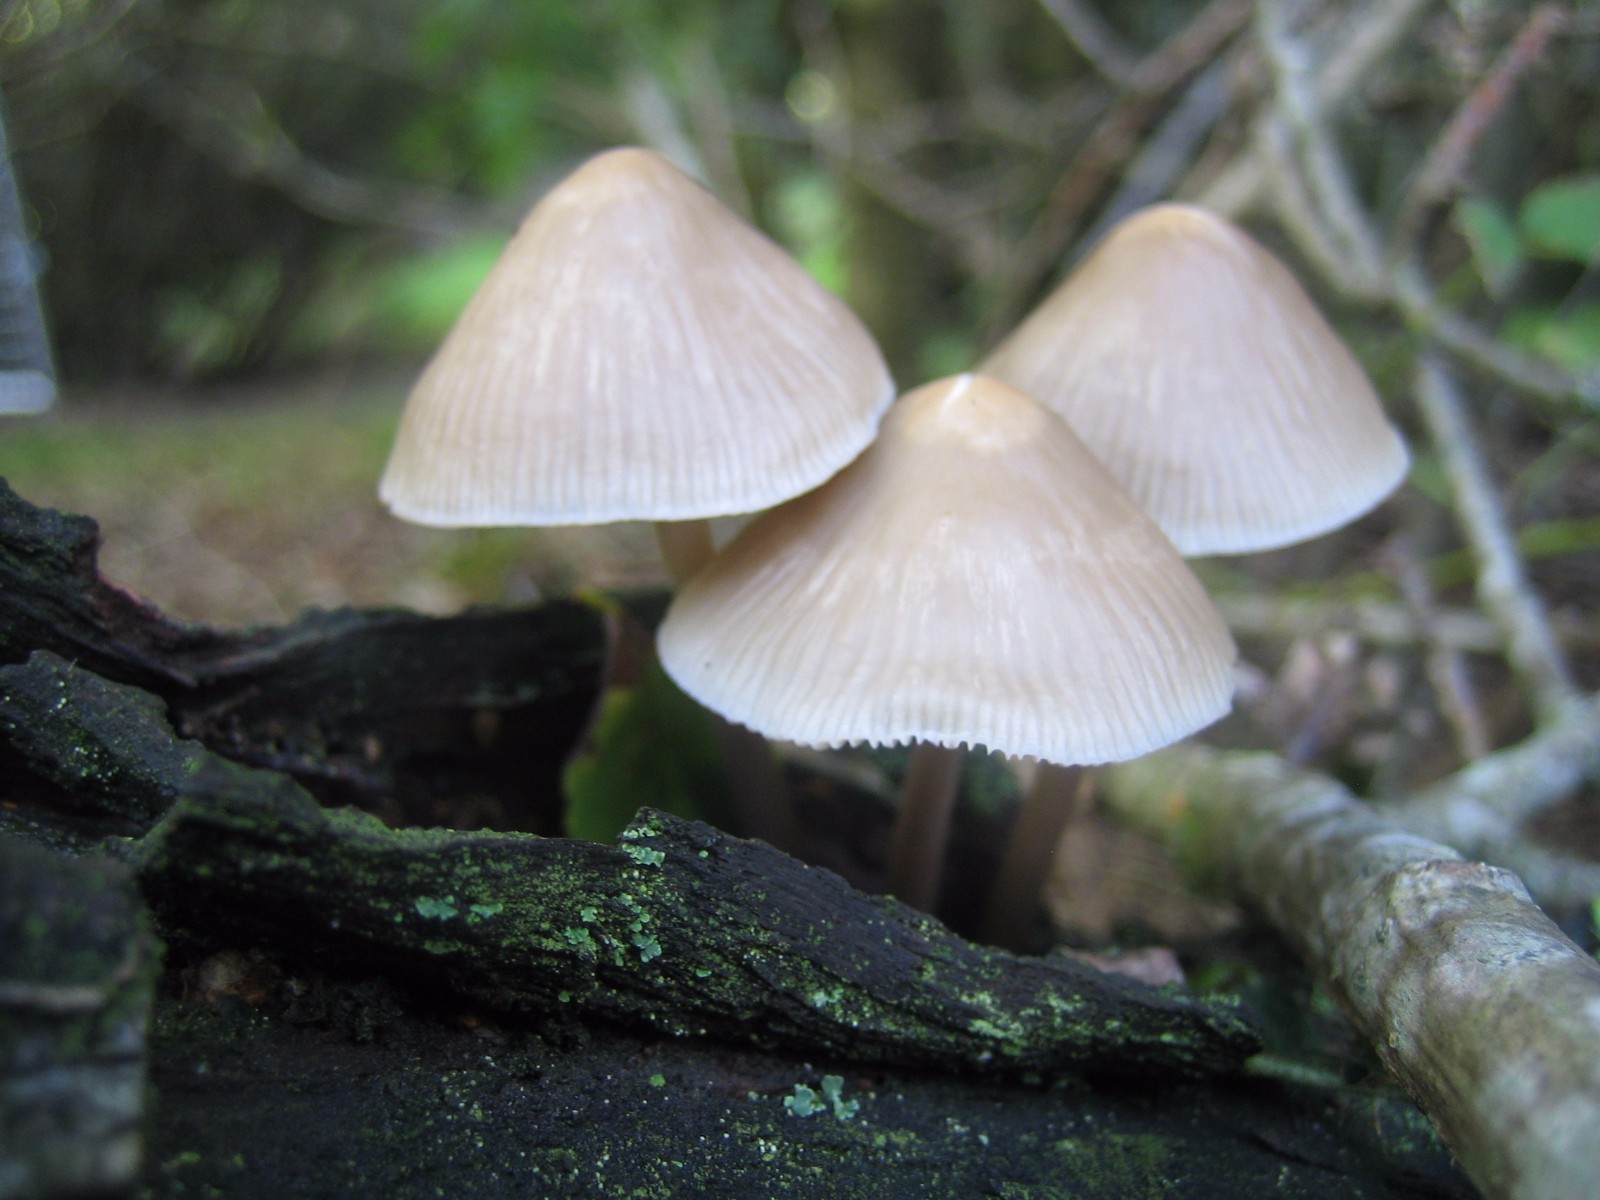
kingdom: Fungi
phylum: Basidiomycota
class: Agaricomycetes
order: Agaricales
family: Mycenaceae
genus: Mycena
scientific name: Mycena galericulata
